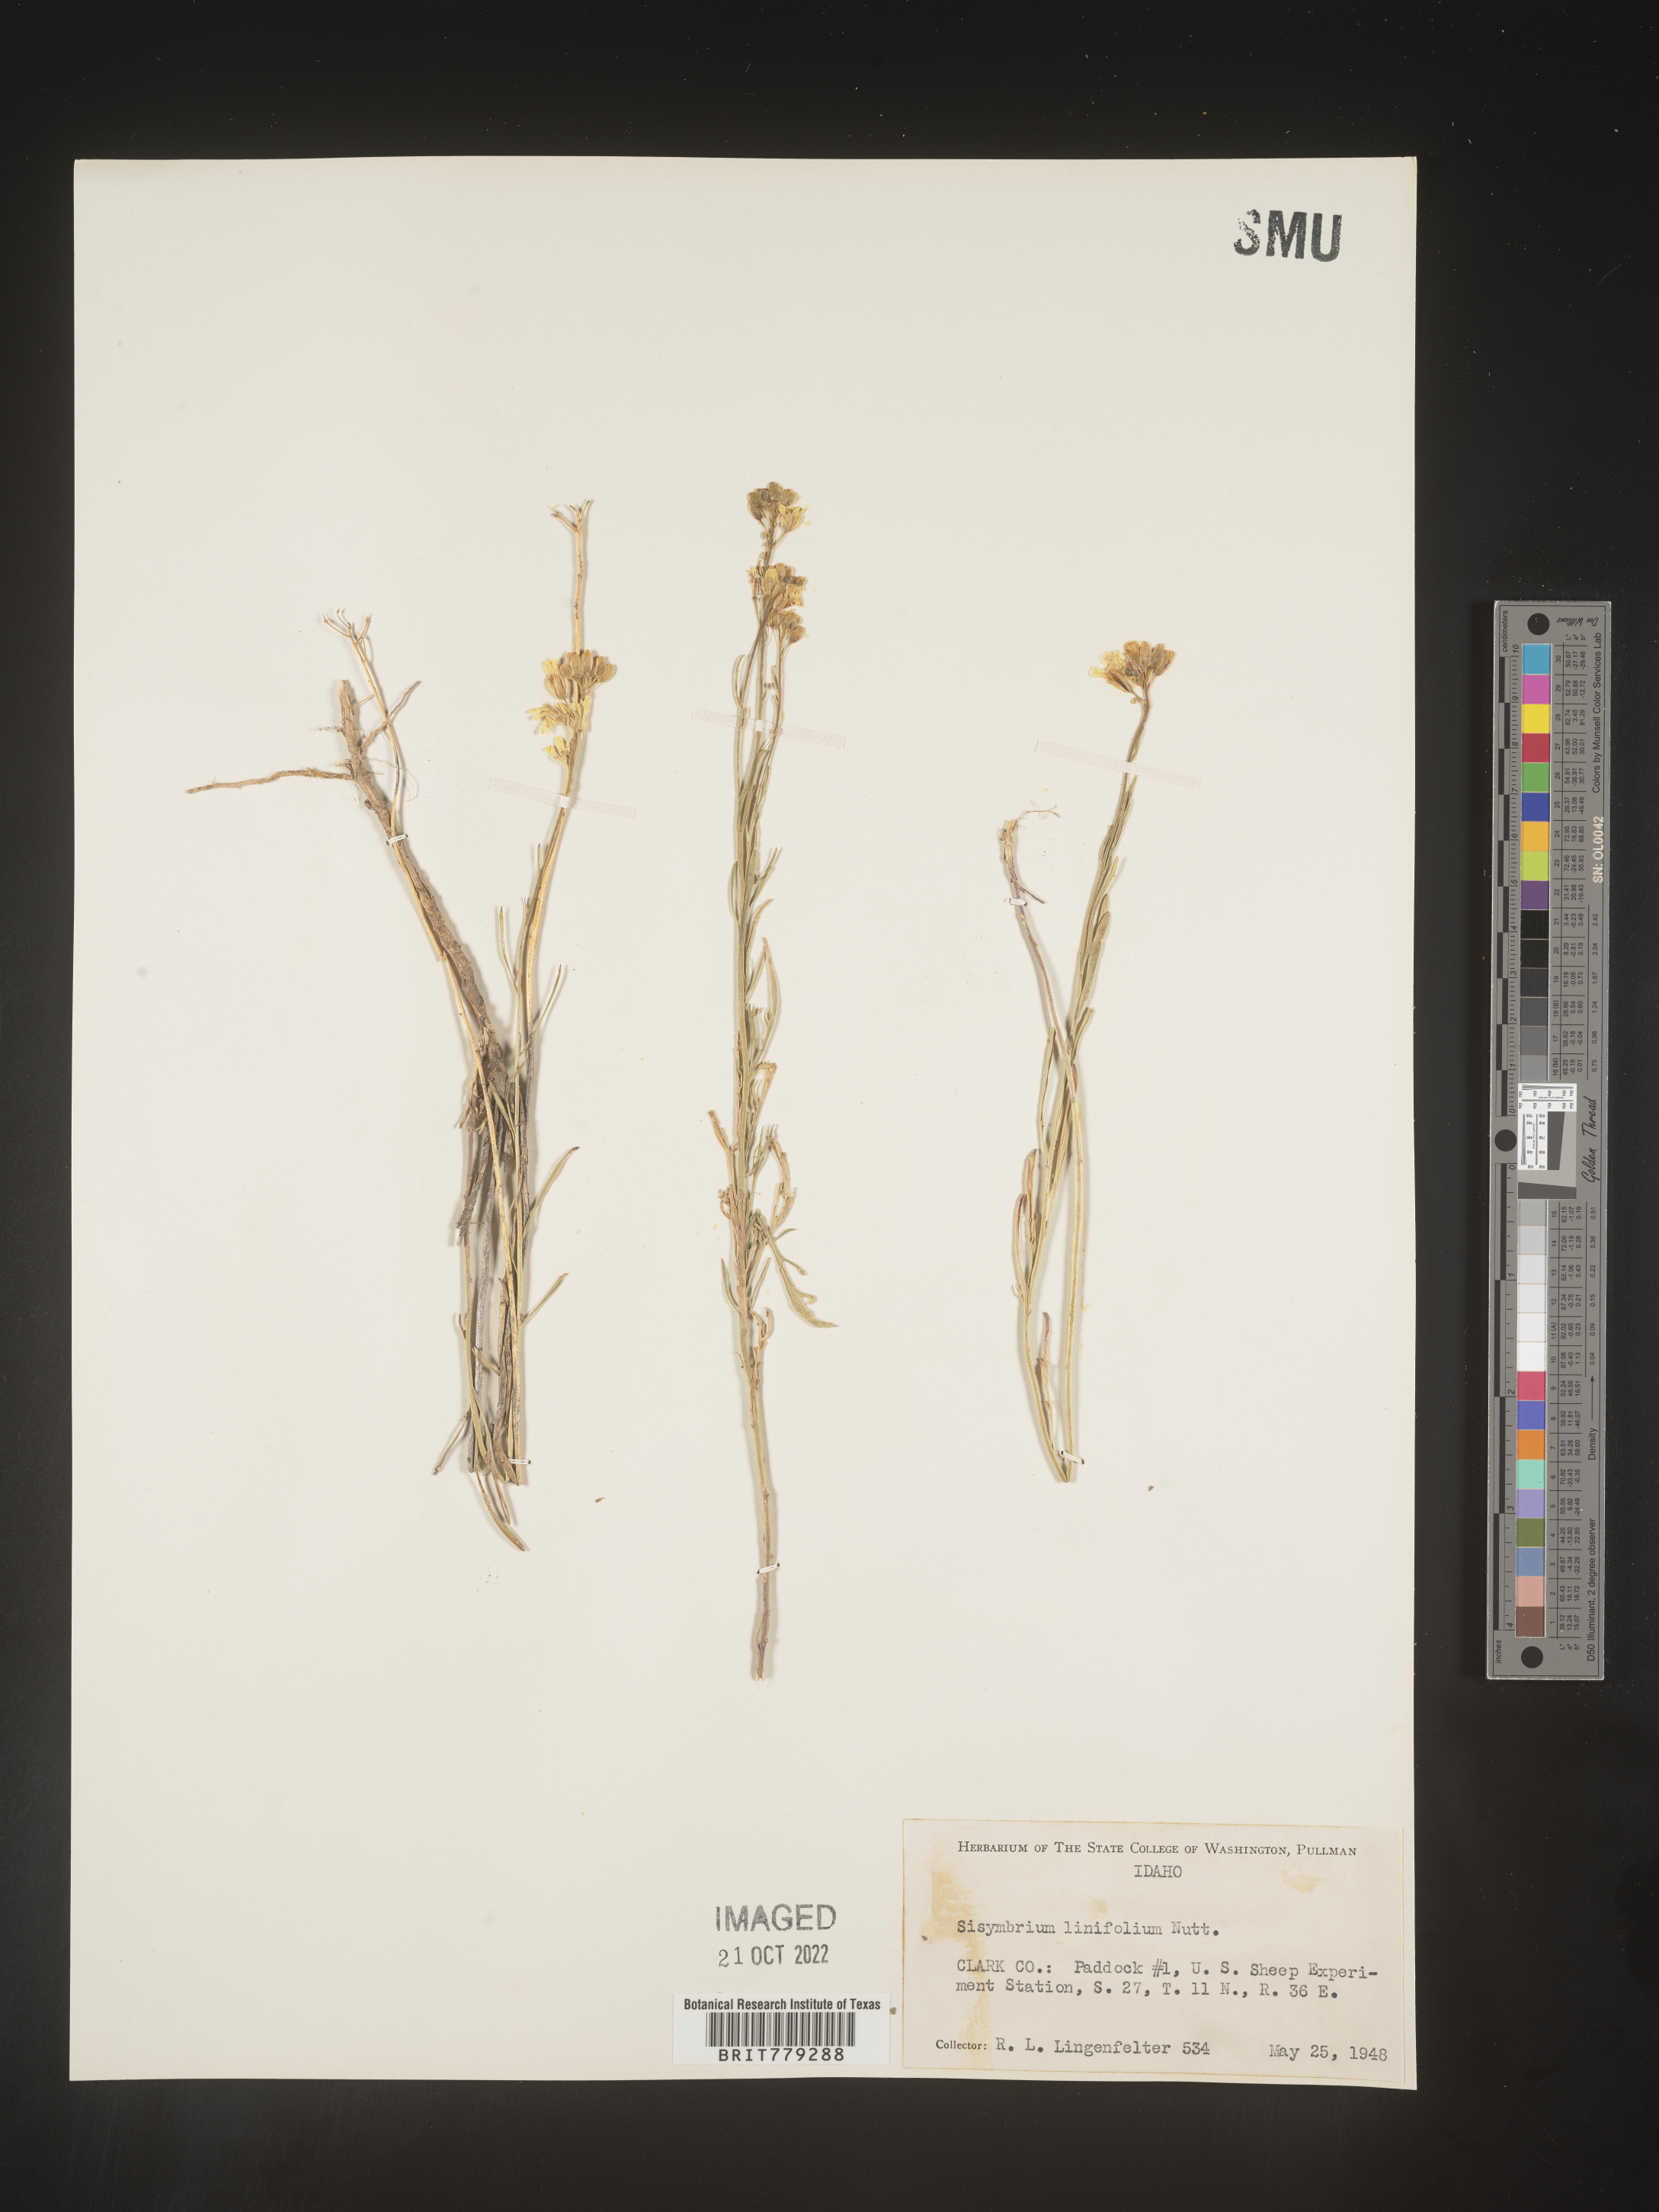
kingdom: Plantae
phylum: Tracheophyta
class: Magnoliopsida
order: Brassicales
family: Brassicaceae
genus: Sisymbrium
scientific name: Sisymbrium
